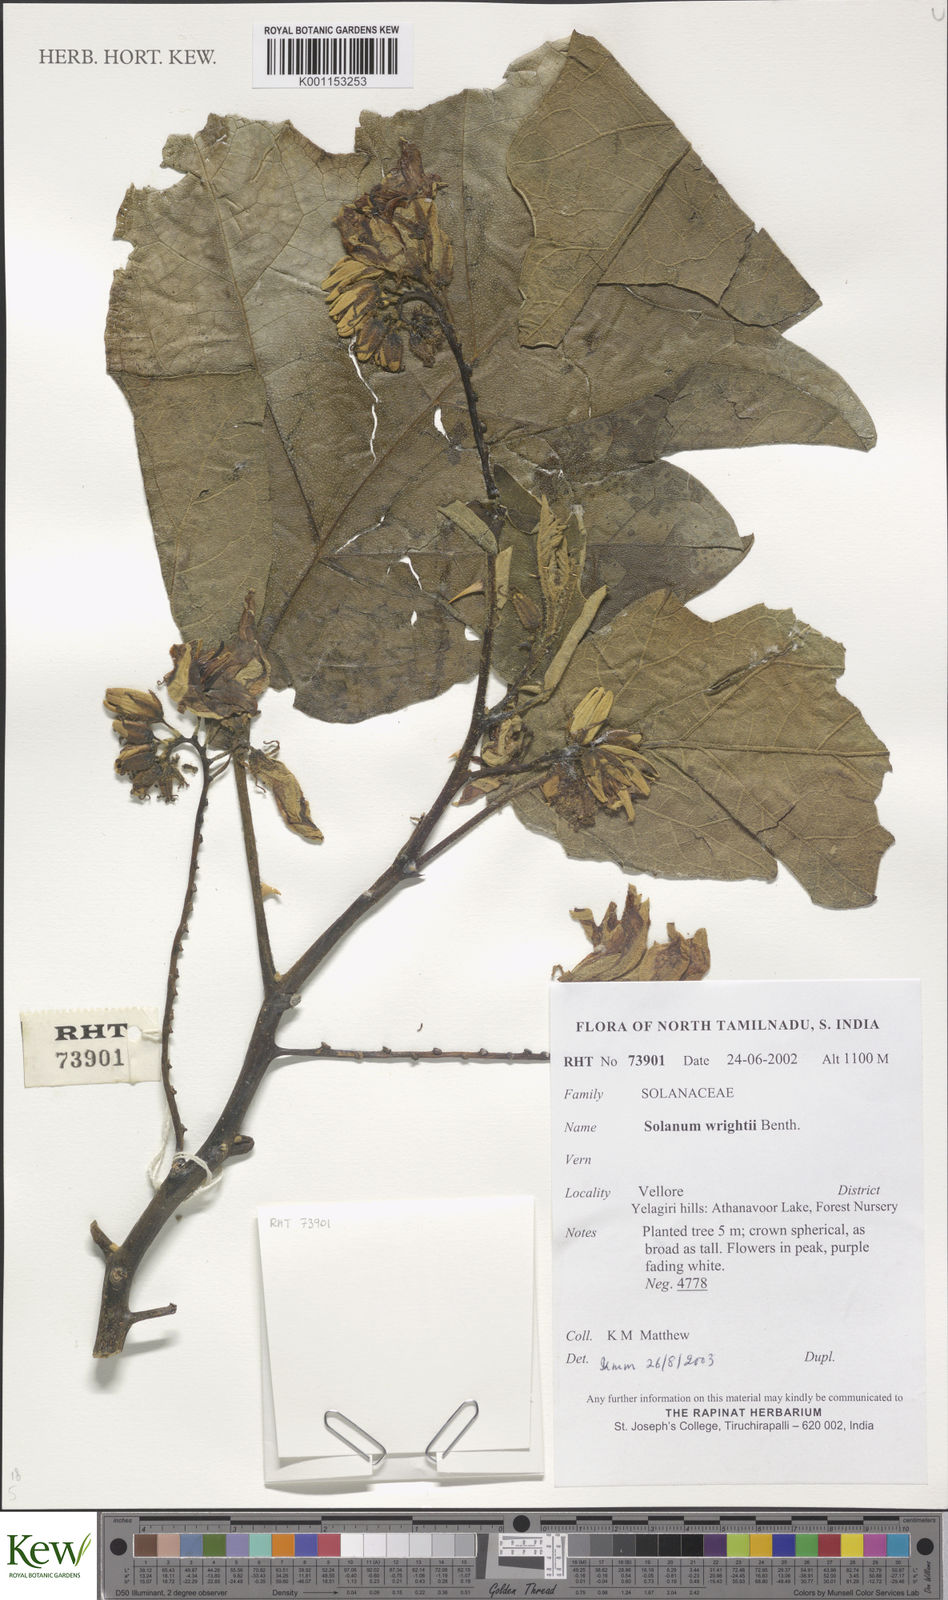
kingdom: Plantae
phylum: Tracheophyta
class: Magnoliopsida
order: Solanales
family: Solanaceae
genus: Solanum
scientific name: Solanum wrightii
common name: Brazilian potato-tree
